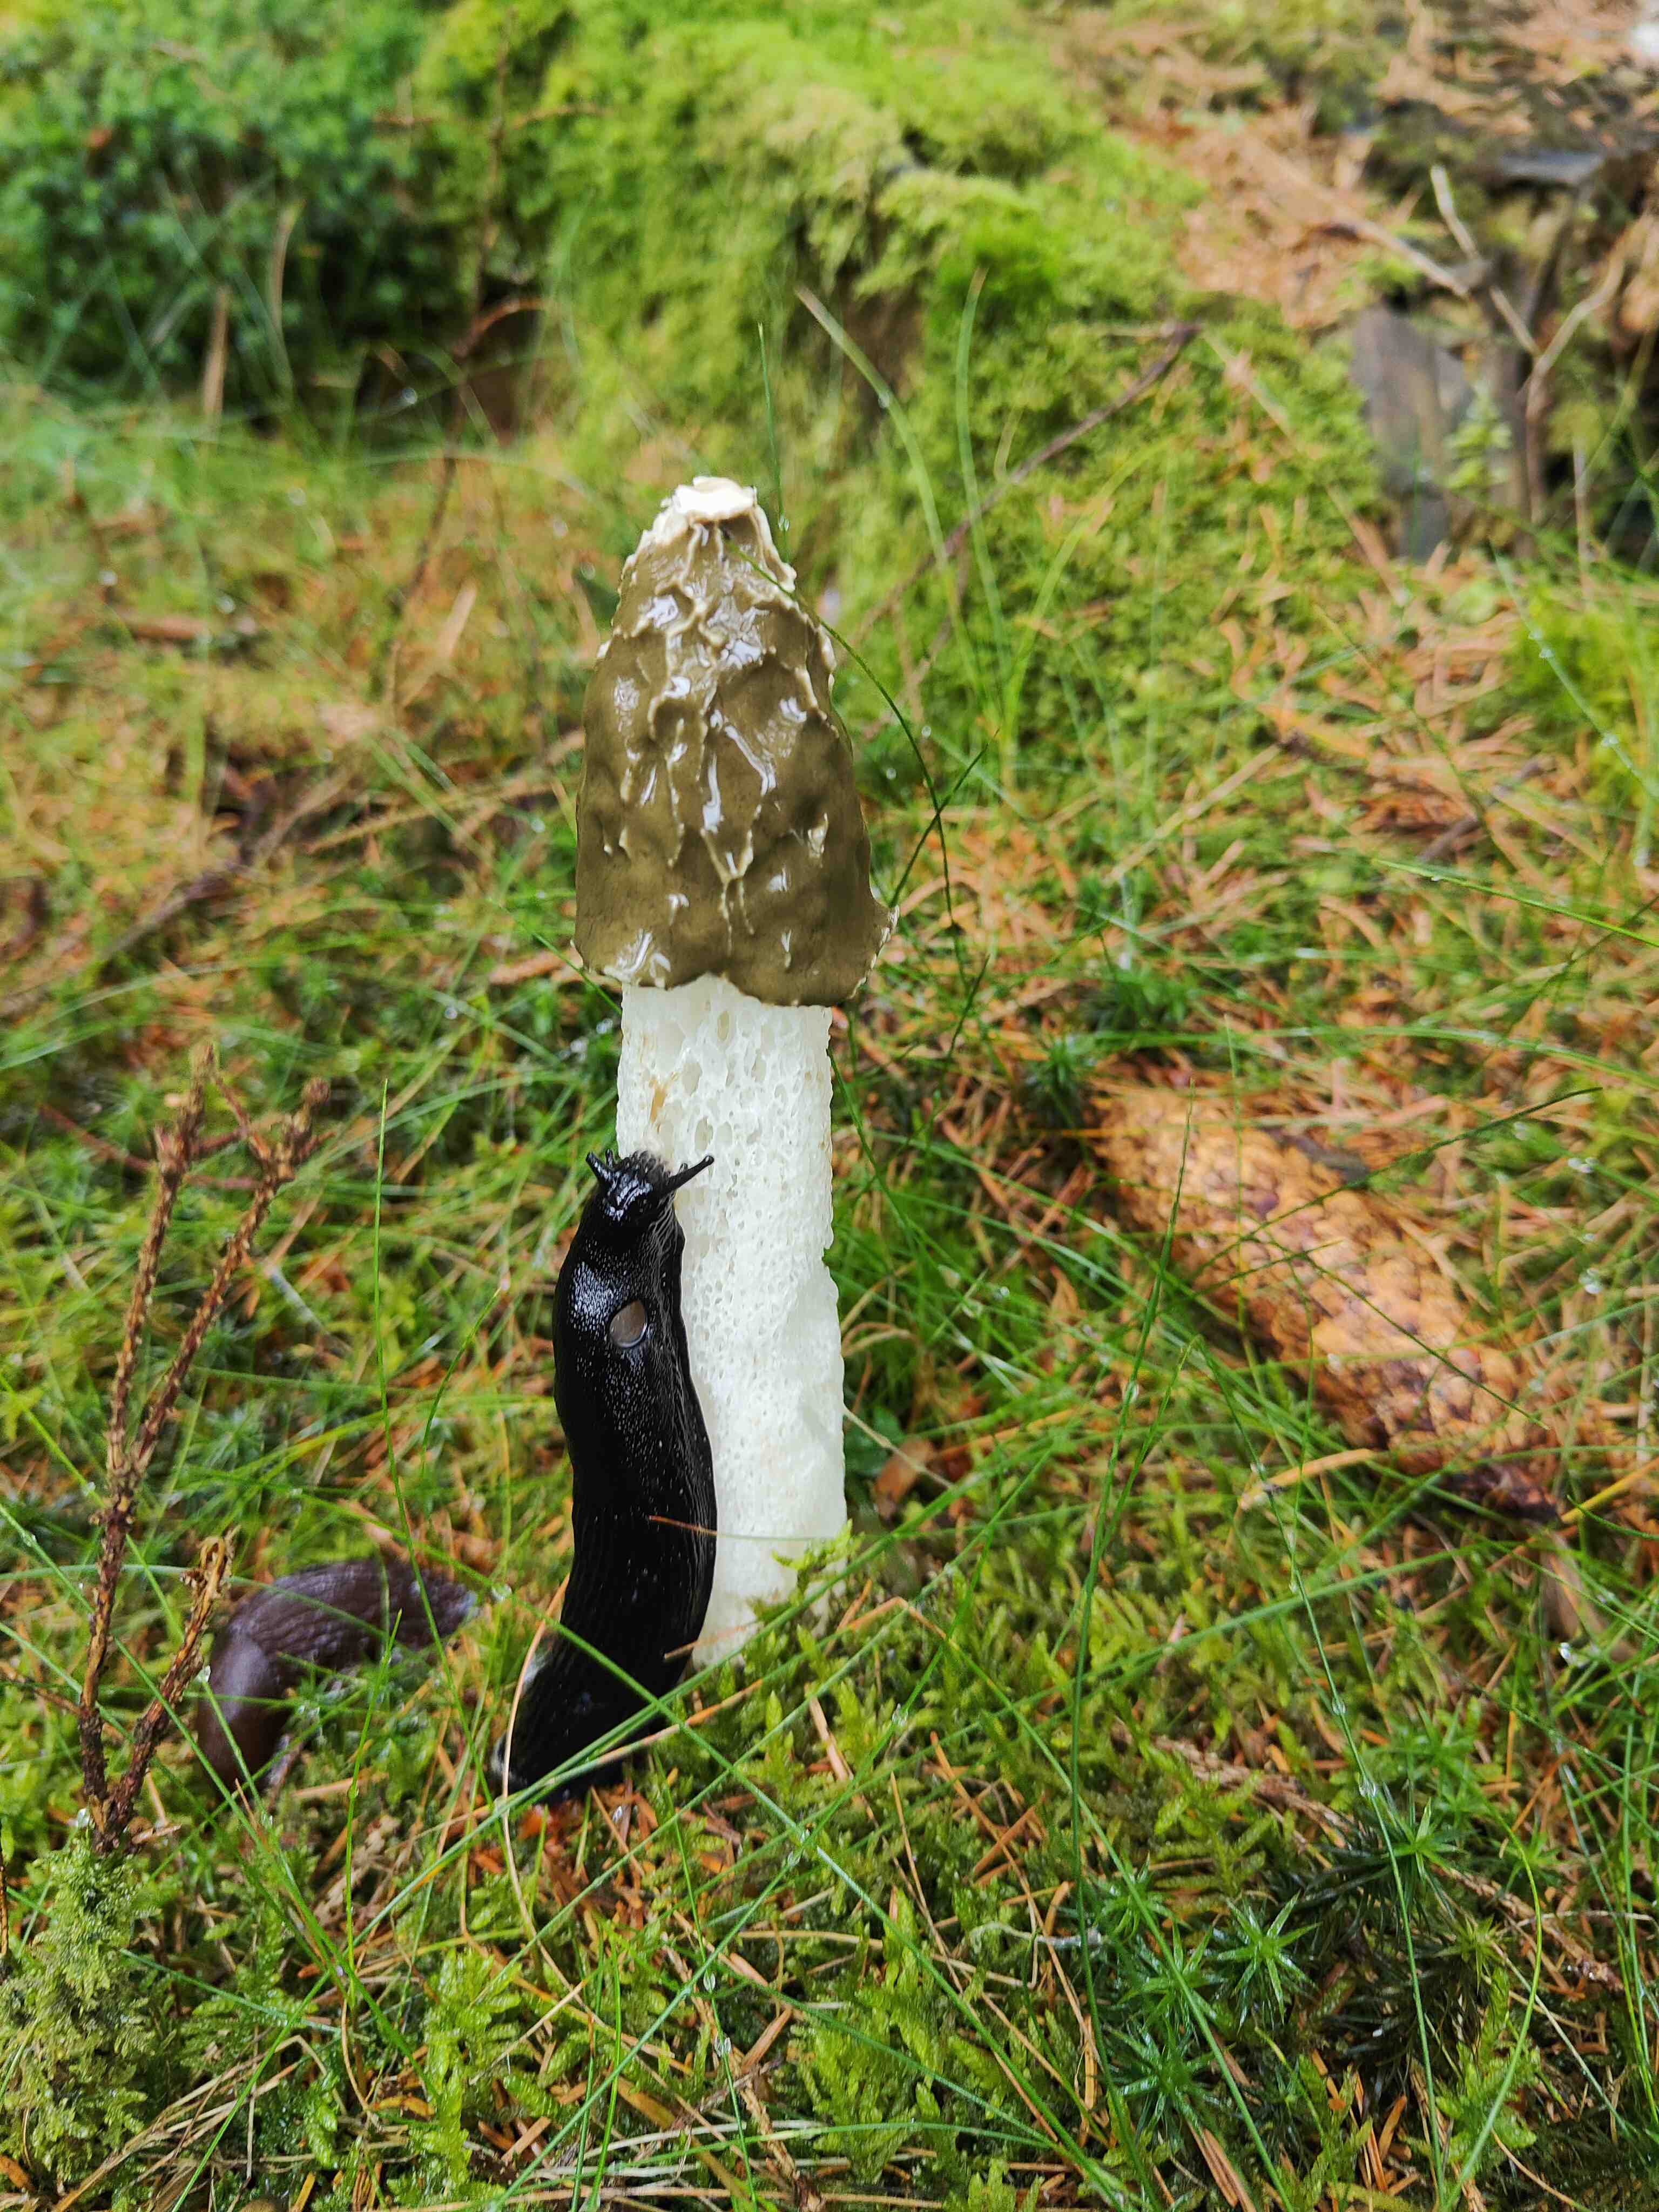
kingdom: Fungi
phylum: Basidiomycota
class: Agaricomycetes
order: Phallales
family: Phallaceae
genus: Phallus
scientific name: Phallus impudicus
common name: almindelig stinksvamp
